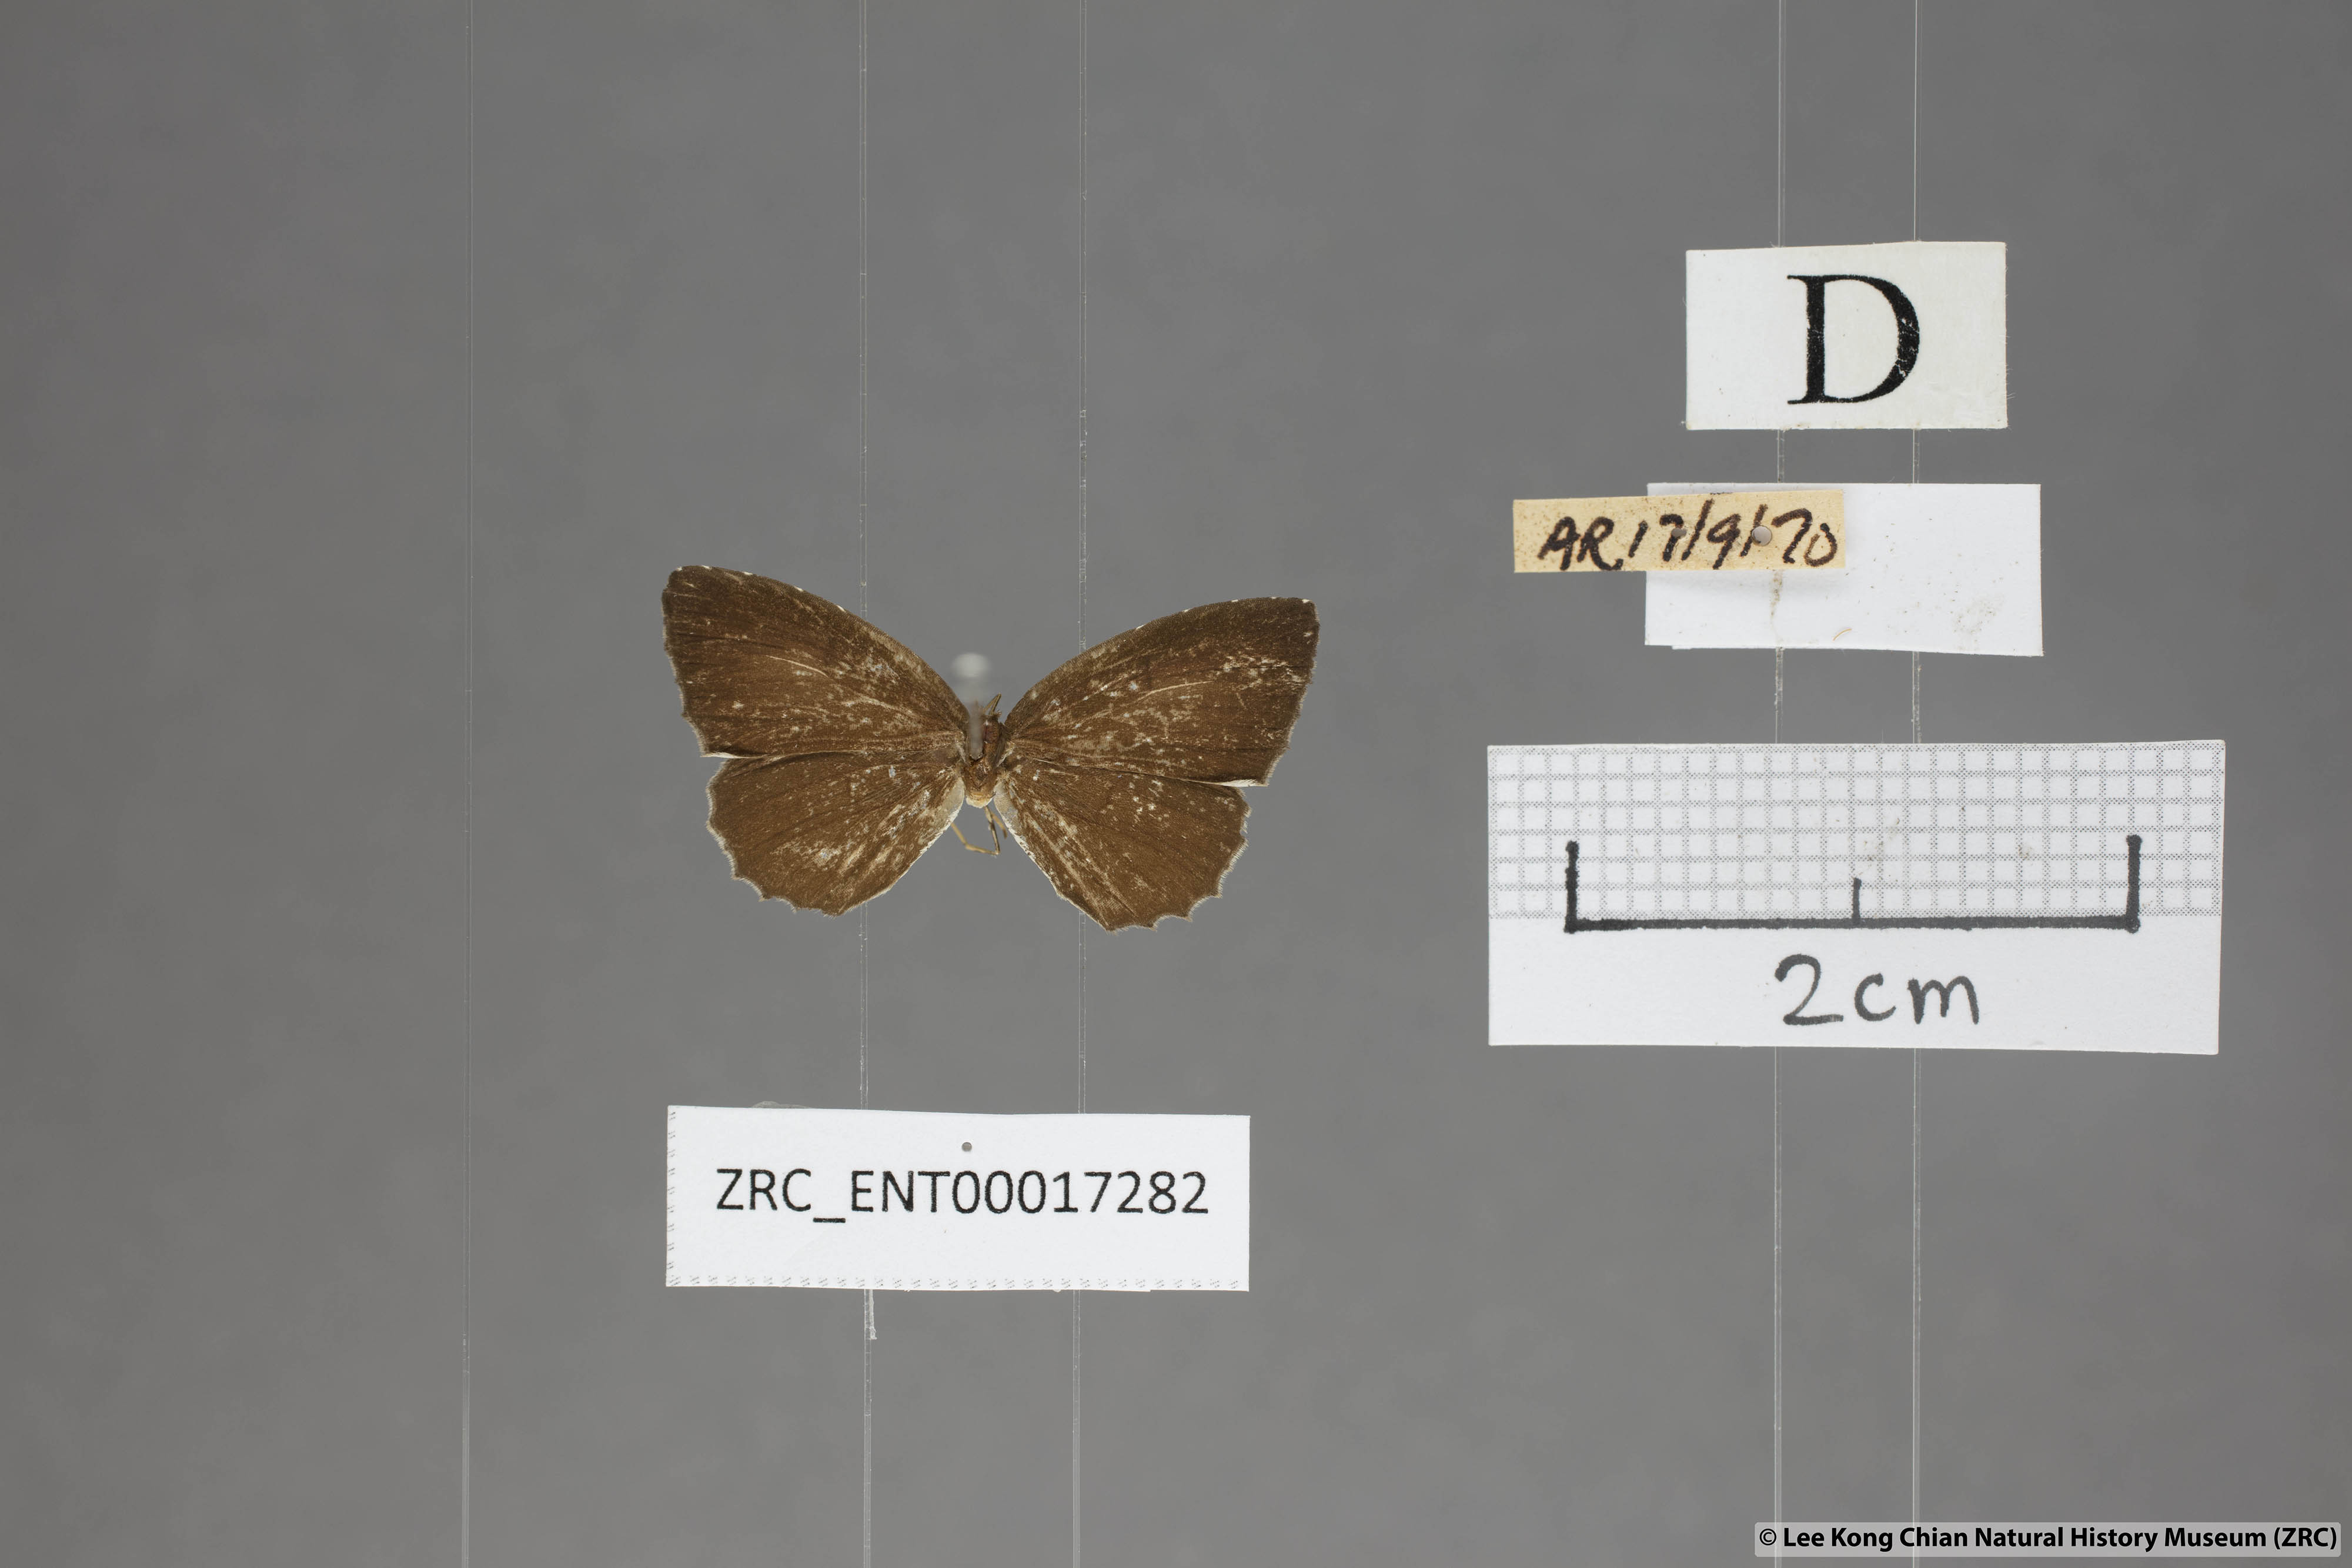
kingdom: Animalia
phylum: Arthropoda
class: Insecta
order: Lepidoptera
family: Lycaenidae
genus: Allotinus
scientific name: Allotinus substrigosa
